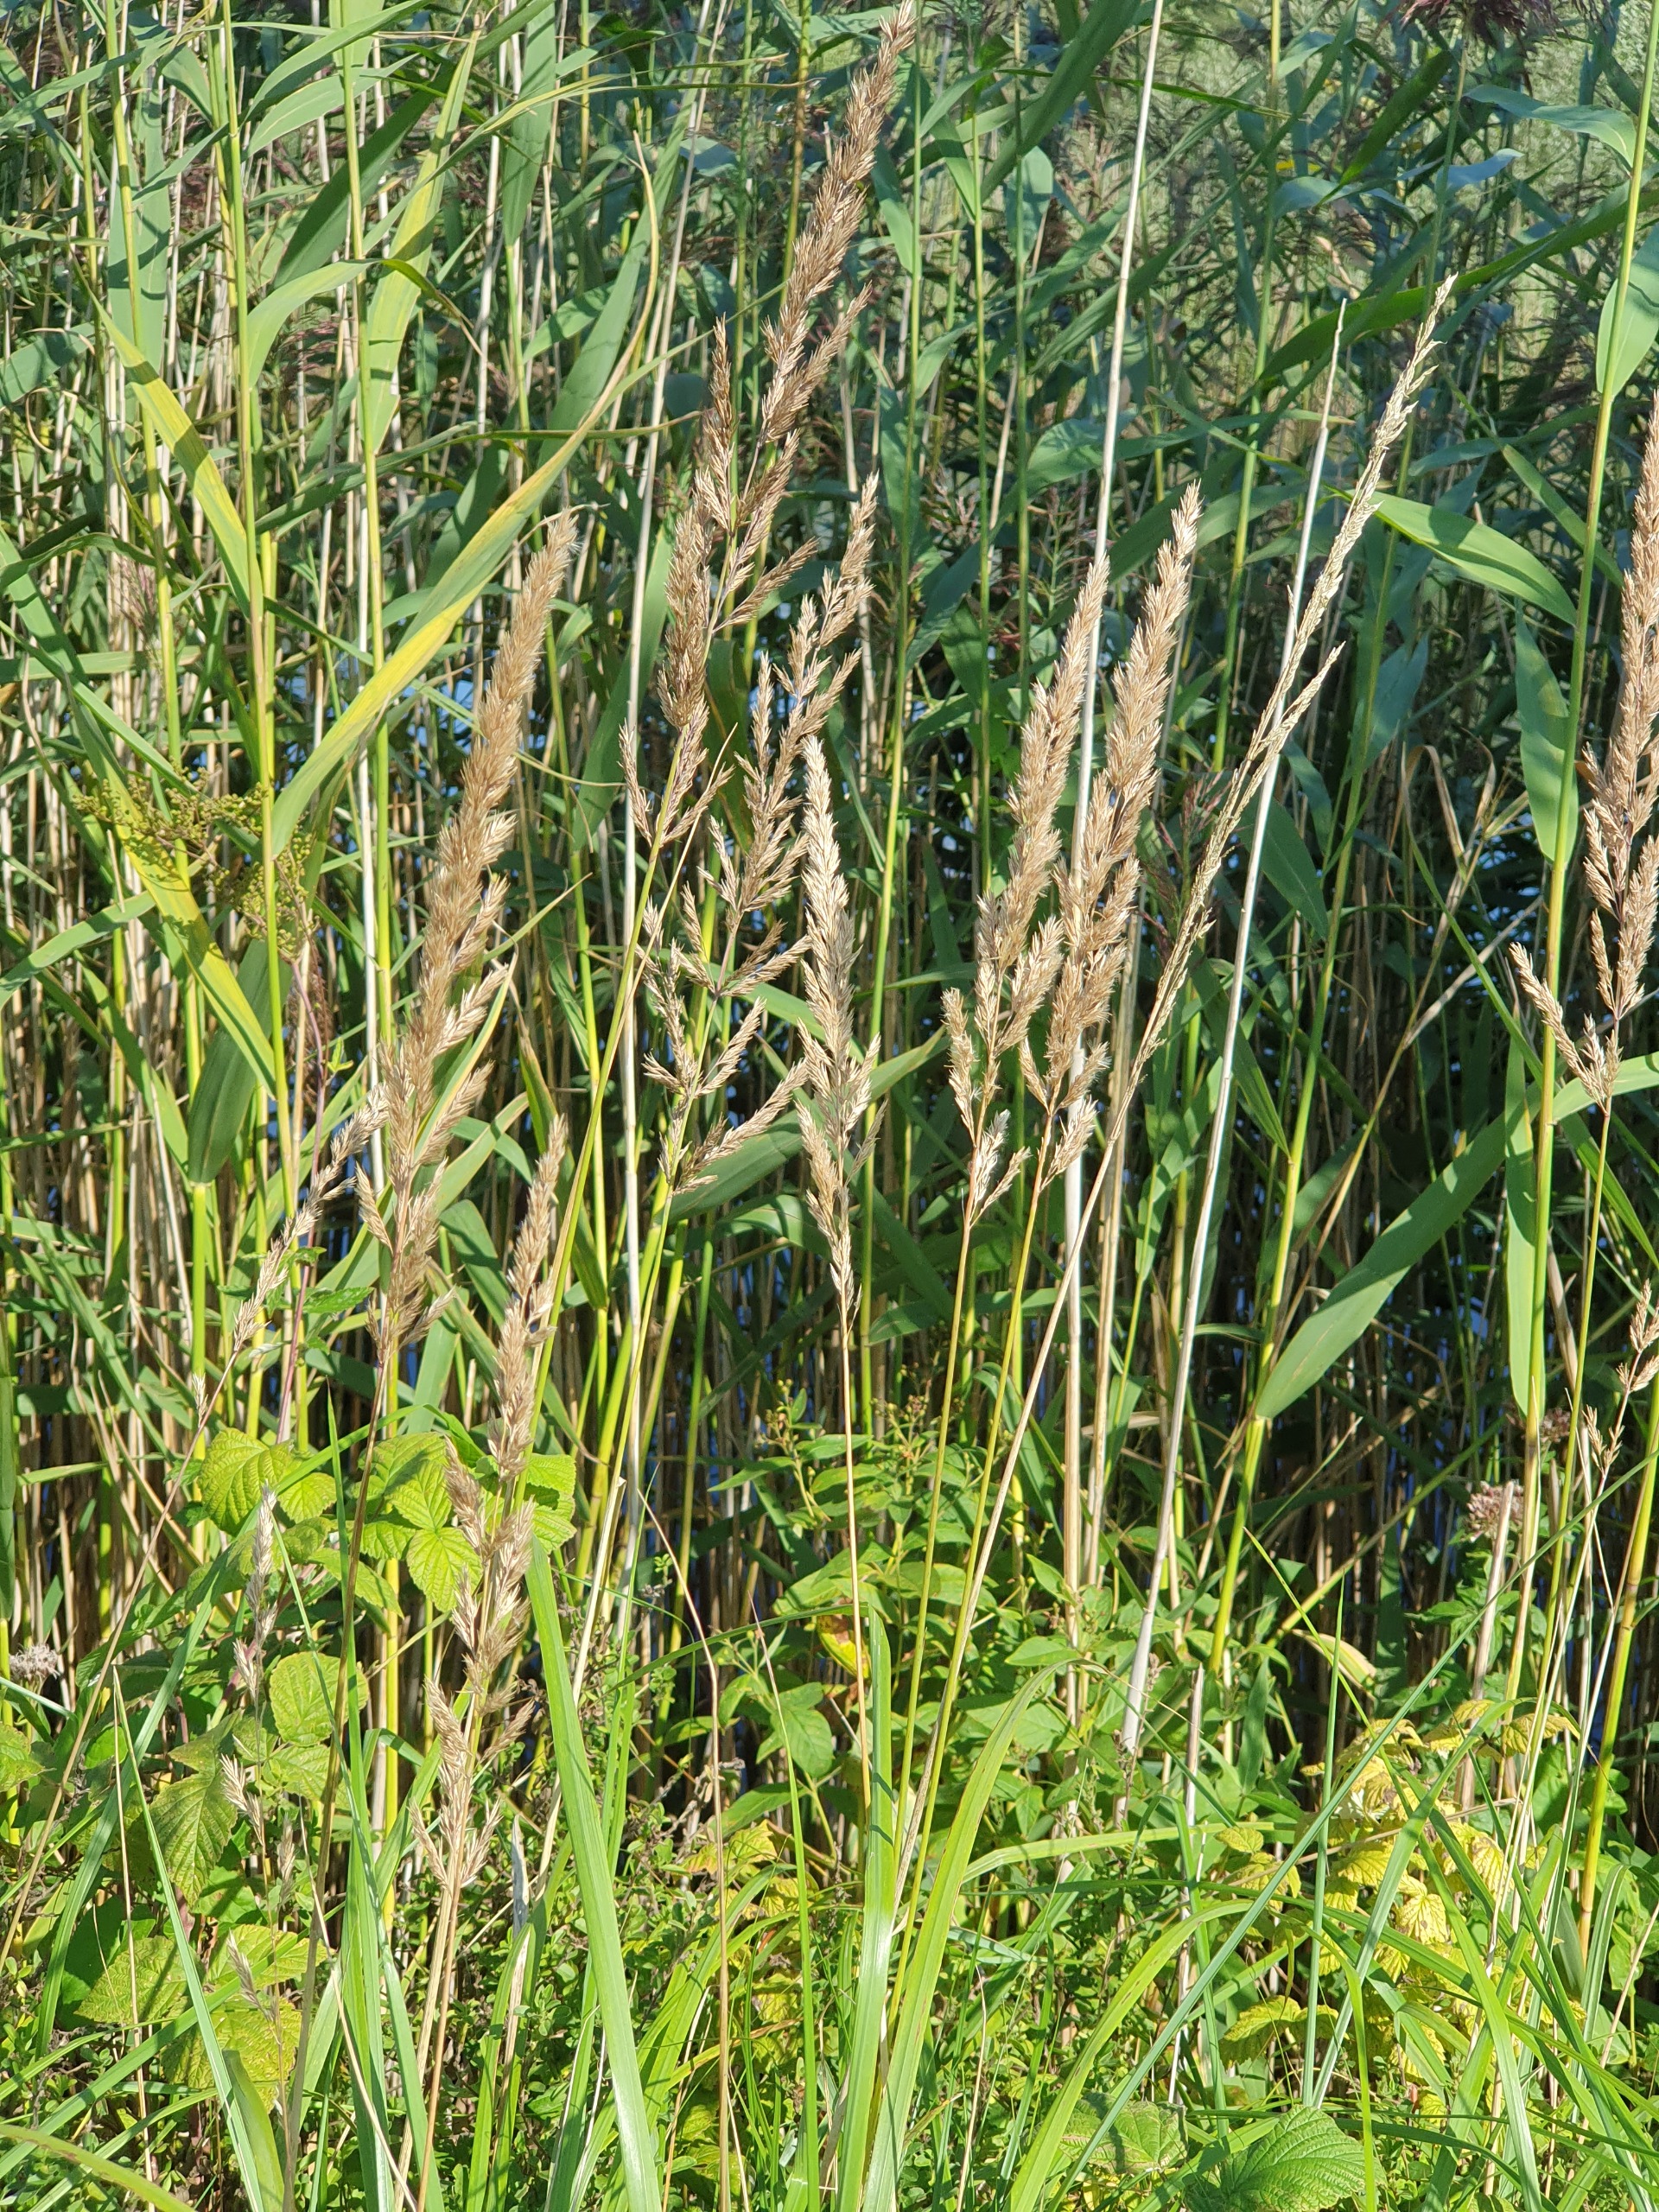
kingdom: Plantae
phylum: Tracheophyta
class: Liliopsida
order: Poales
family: Poaceae
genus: Calamagrostis
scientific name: Calamagrostis epigejos
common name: Bjerg-rørhvene
